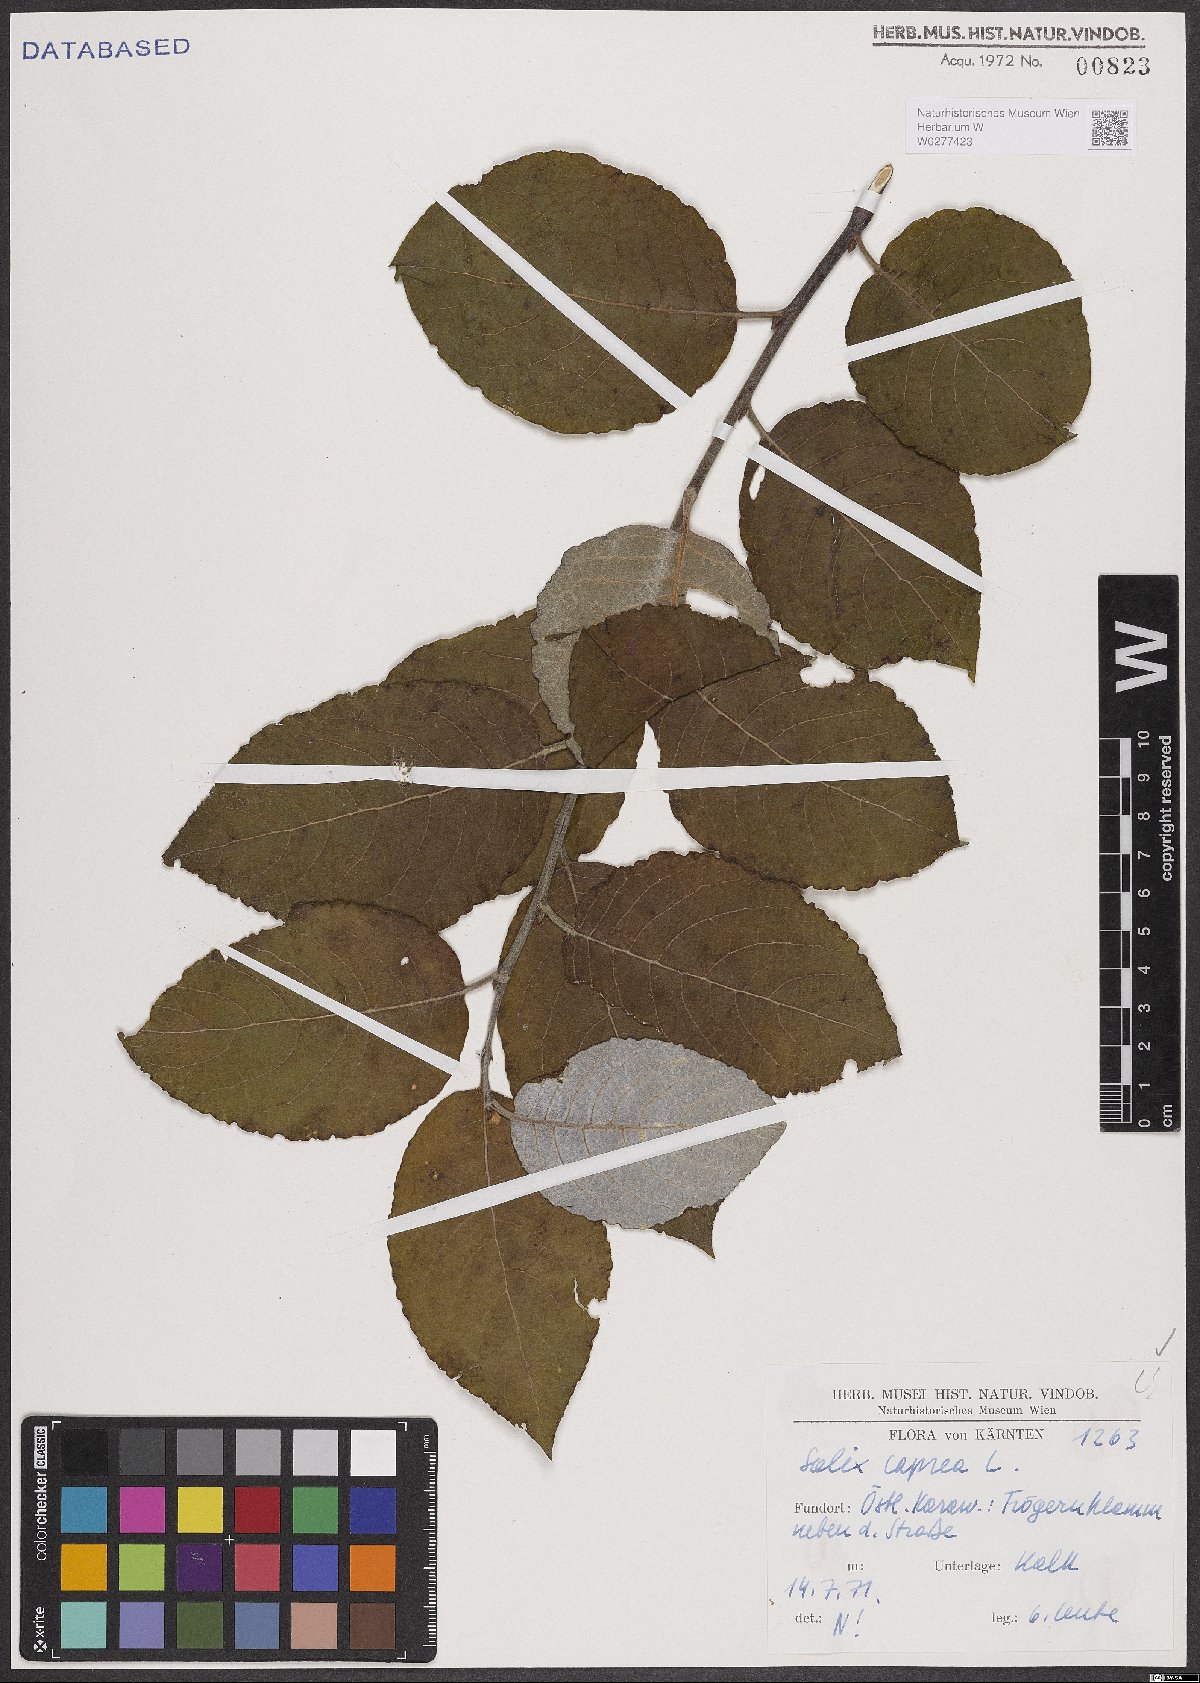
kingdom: Plantae
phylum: Tracheophyta
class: Magnoliopsida
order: Malpighiales
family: Salicaceae
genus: Salix
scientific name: Salix caprea
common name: Goat willow
